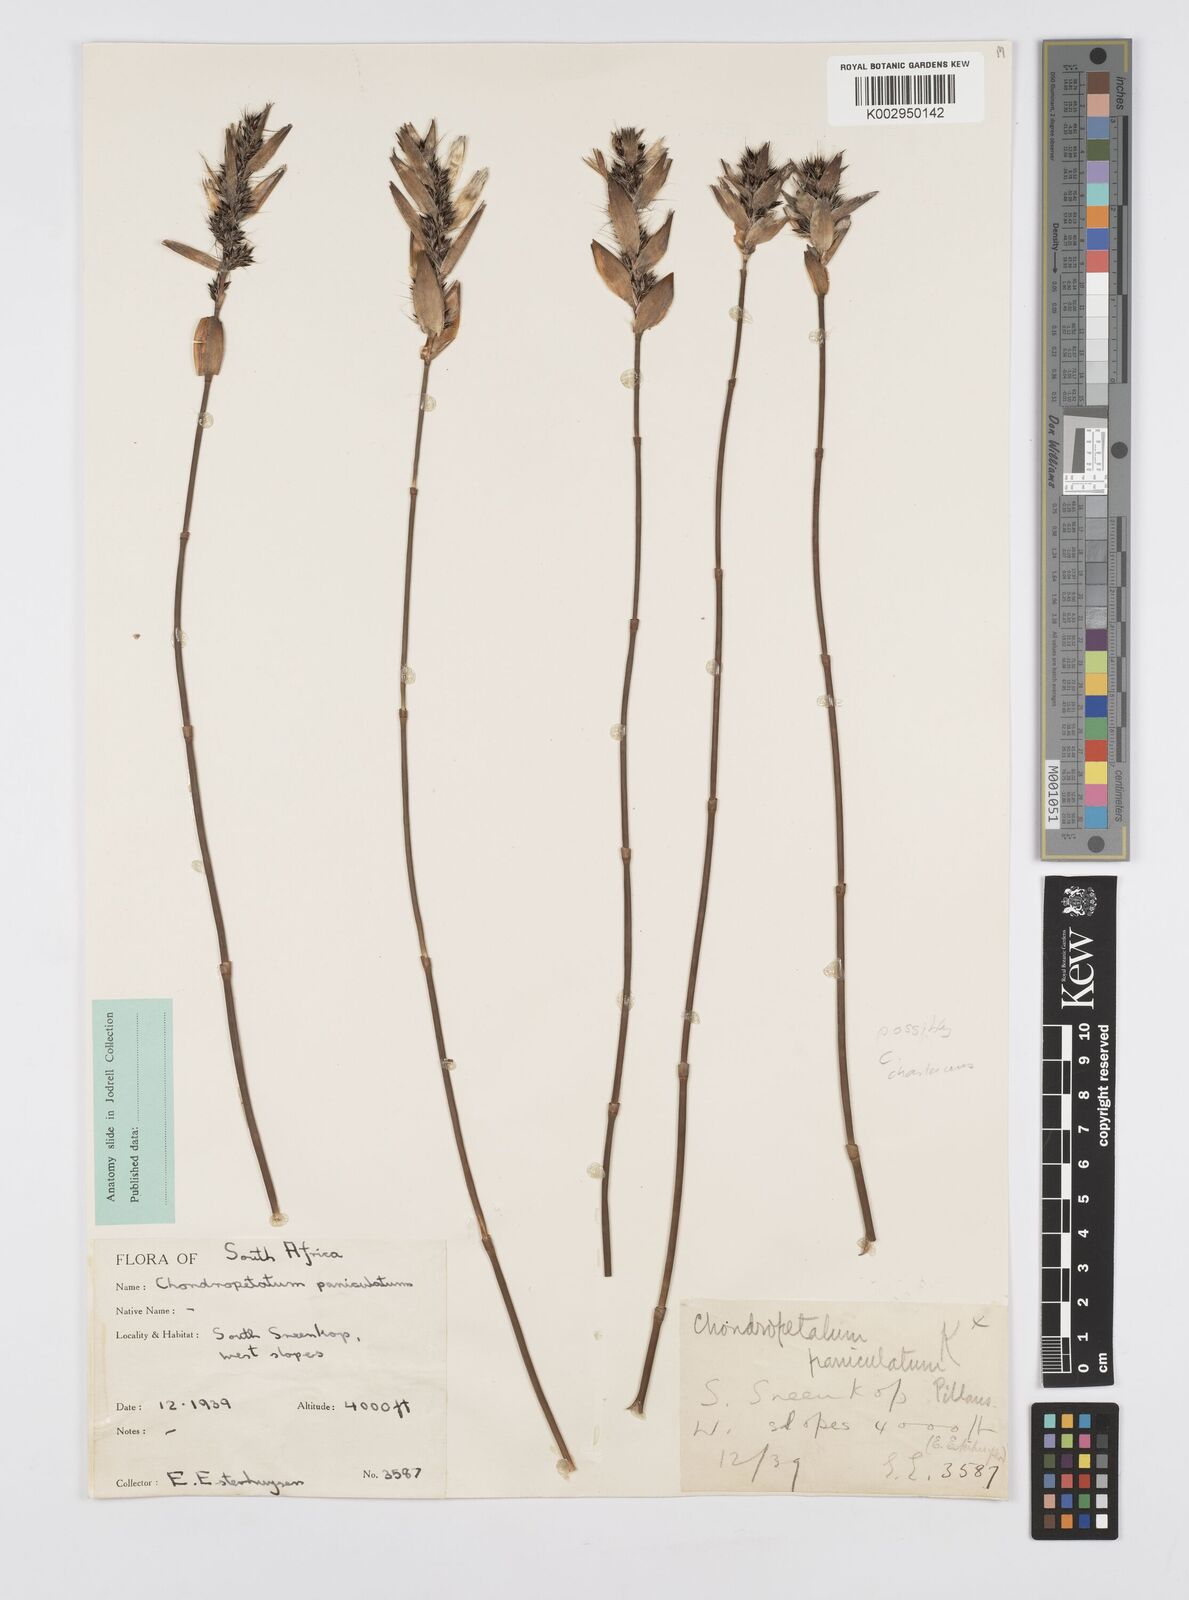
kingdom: Plantae
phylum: Tracheophyta
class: Liliopsida
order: Poales
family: Restionaceae
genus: Askidiosperma
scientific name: Askidiosperma chartaceum
